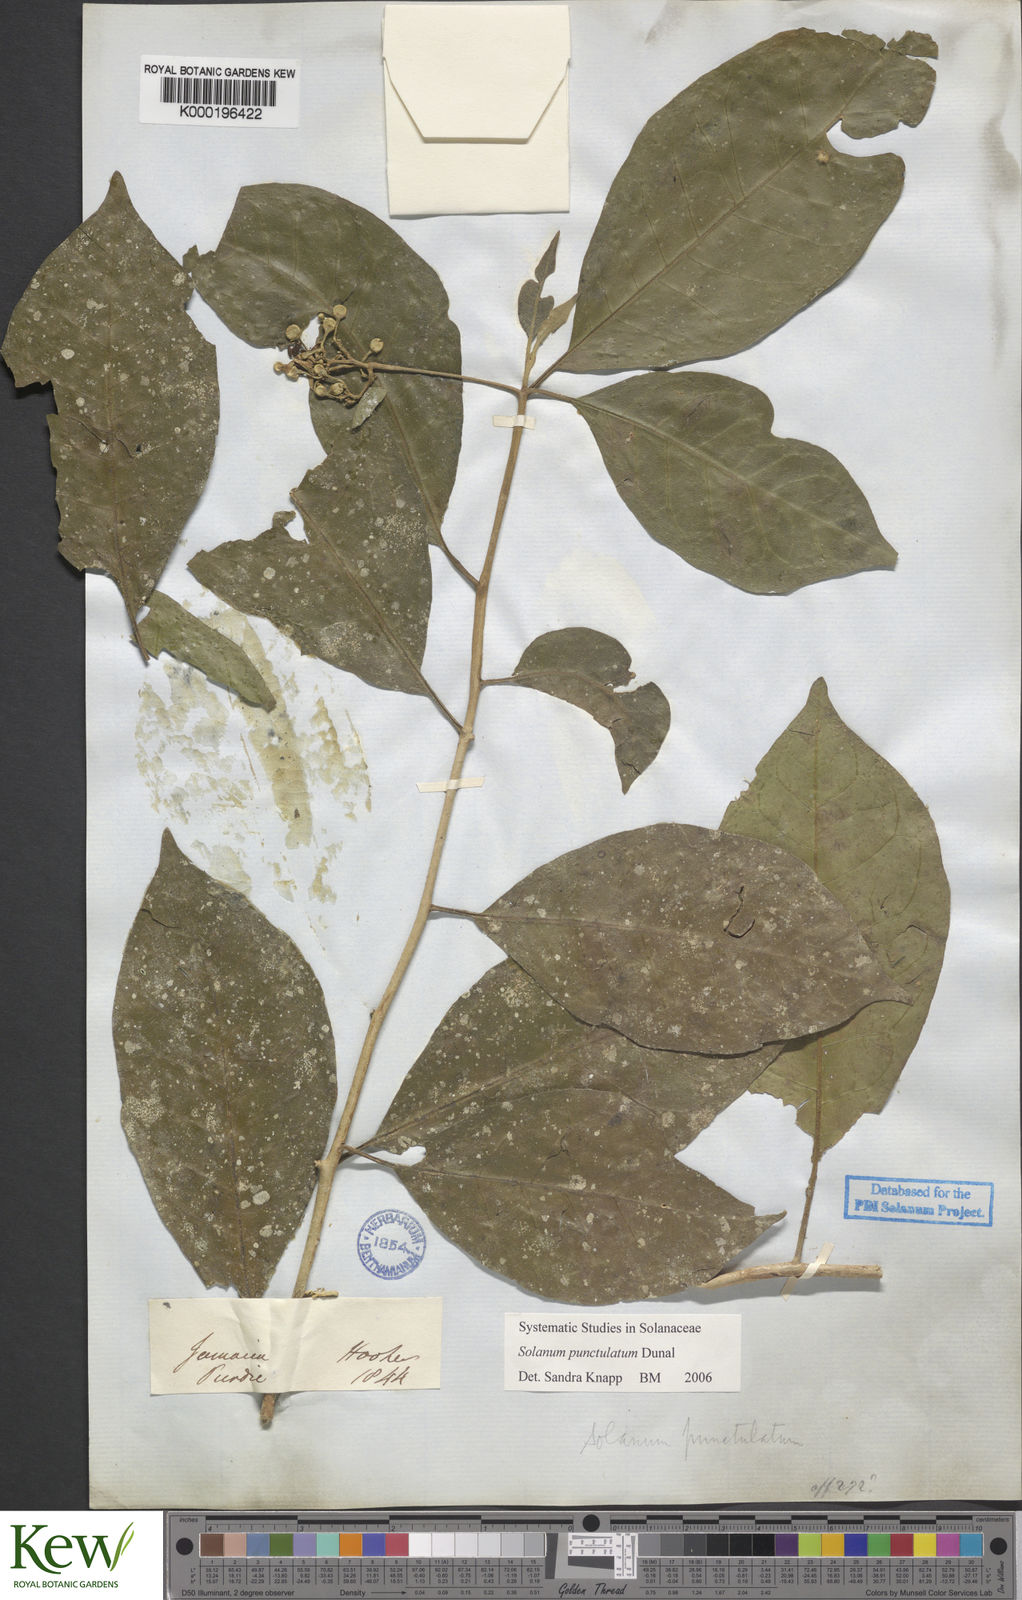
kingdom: Plantae
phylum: Tracheophyta
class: Magnoliopsida
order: Solanales
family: Solanaceae
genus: Solanum
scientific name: Solanum punctulatum
